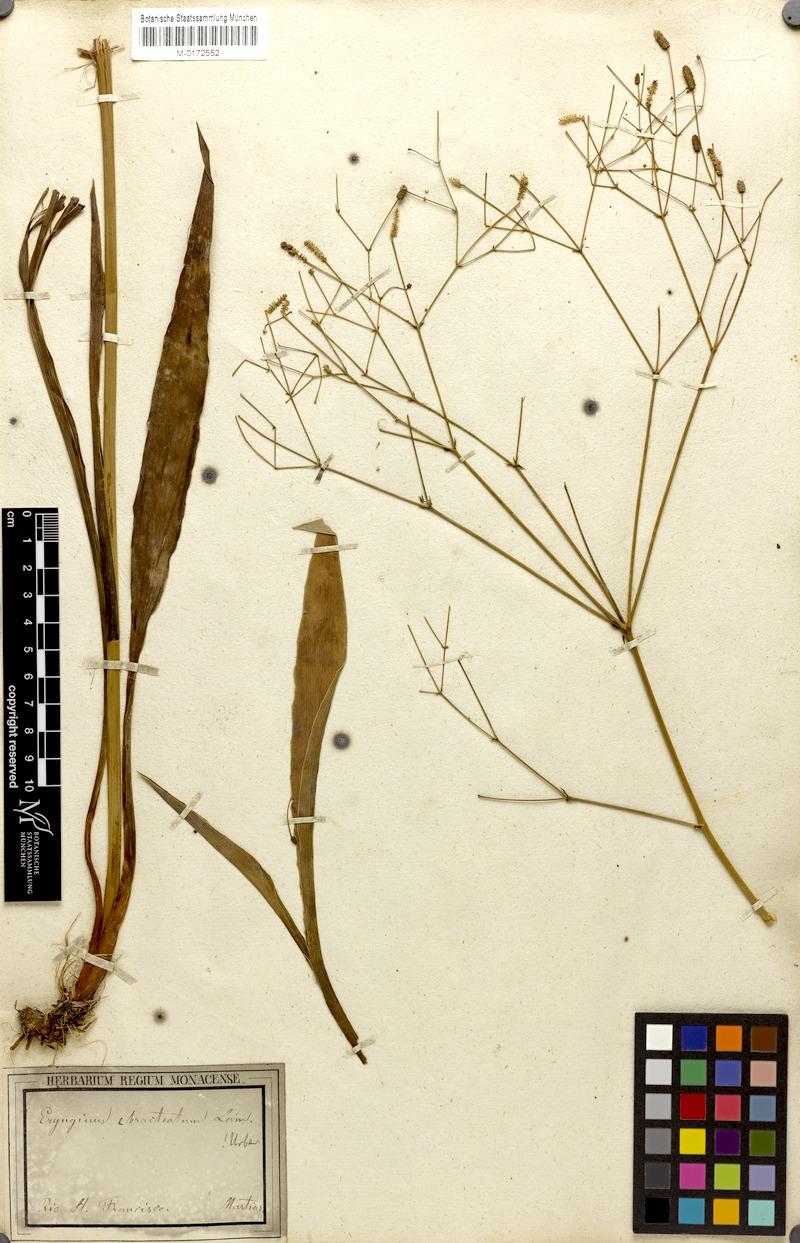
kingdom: Plantae
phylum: Tracheophyta
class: Magnoliopsida
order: Apiales
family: Apiaceae
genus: Eryngium
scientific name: Eryngium ebracteatum
